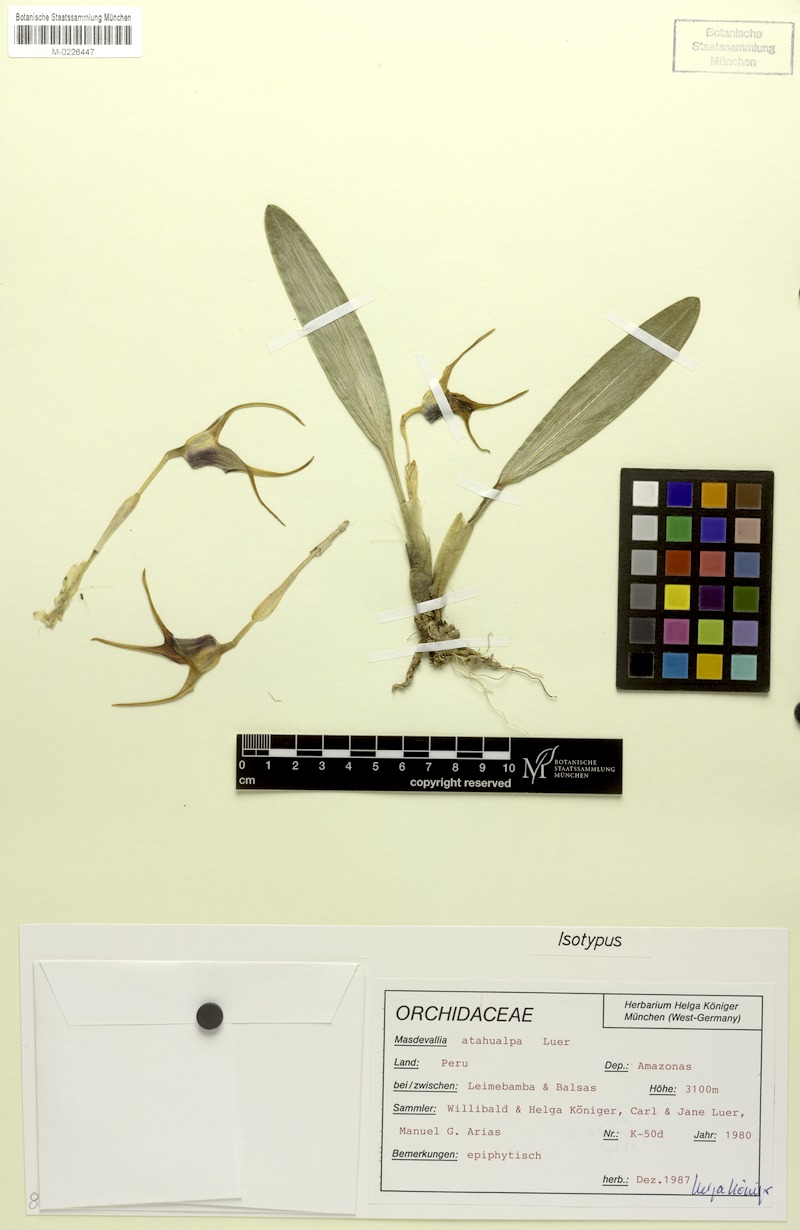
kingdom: Plantae
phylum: Tracheophyta
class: Liliopsida
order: Asparagales
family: Orchidaceae
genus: Masdevallia
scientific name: Masdevallia atahualpa
